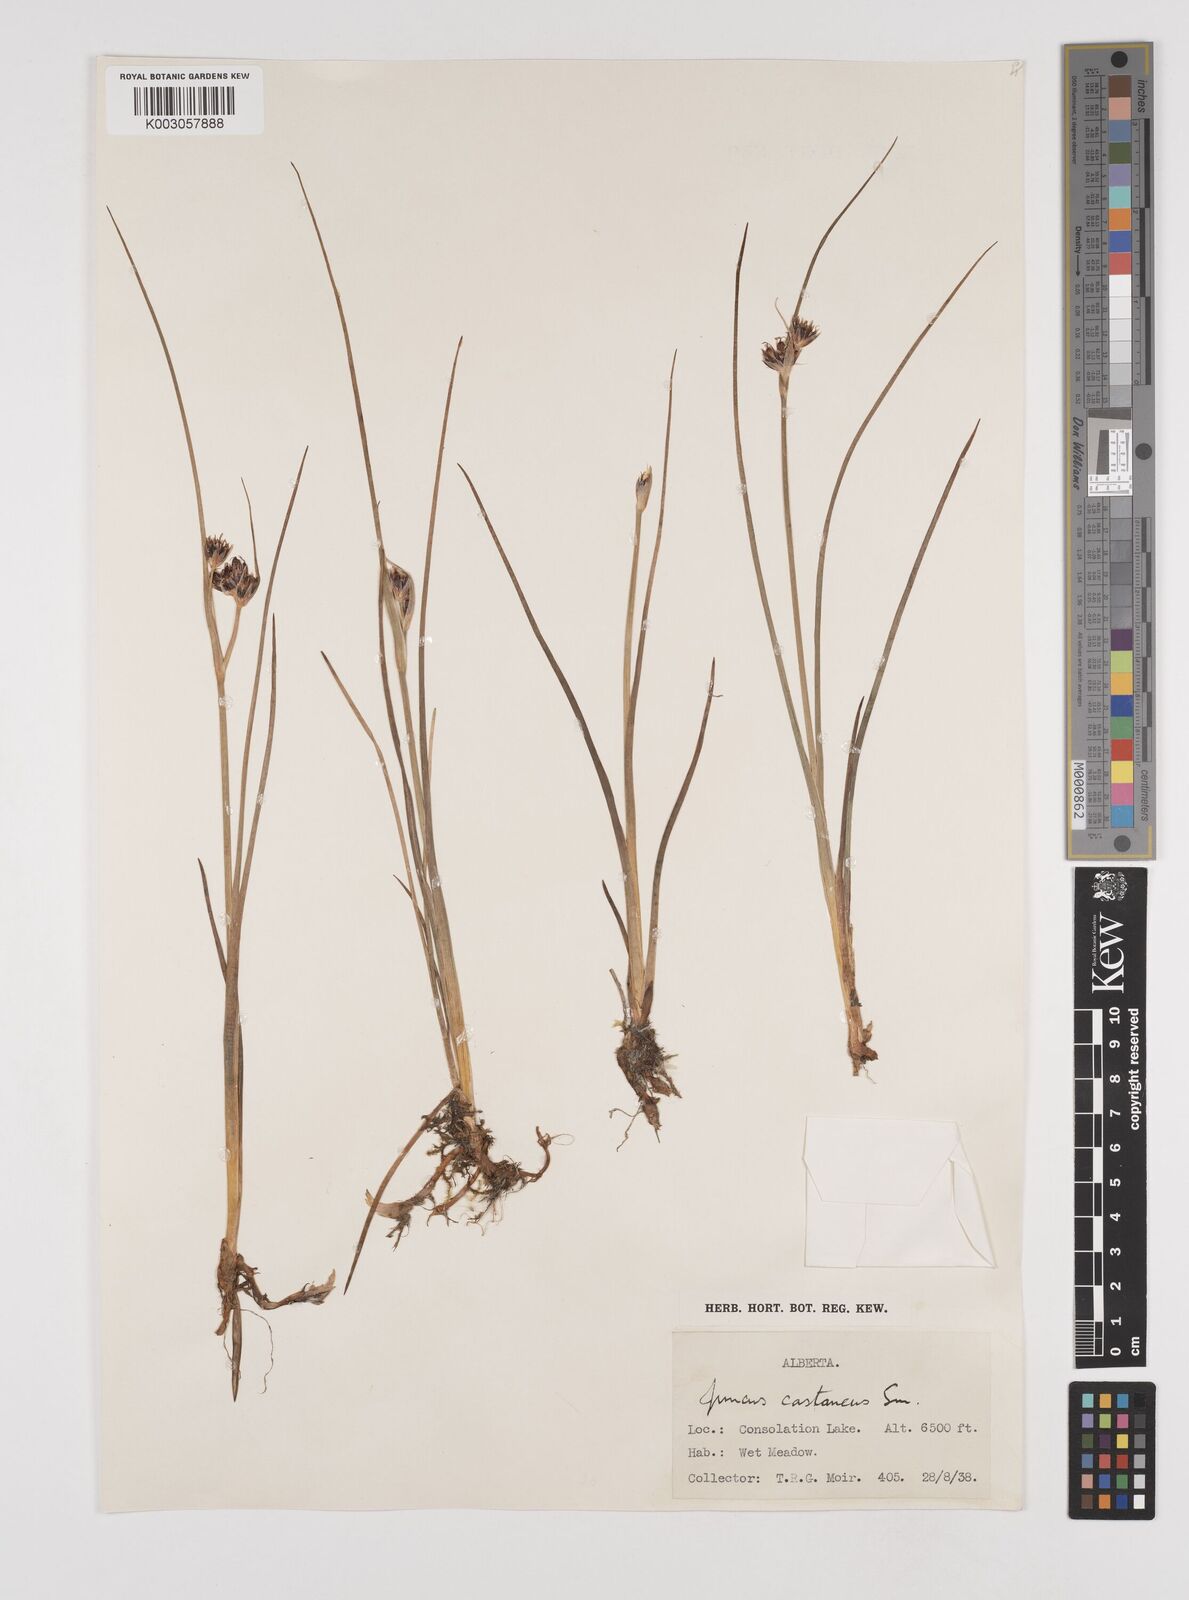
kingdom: Plantae
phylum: Tracheophyta
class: Liliopsida
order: Poales
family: Juncaceae
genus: Juncus
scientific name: Juncus castaneus
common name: Chestnut rush
